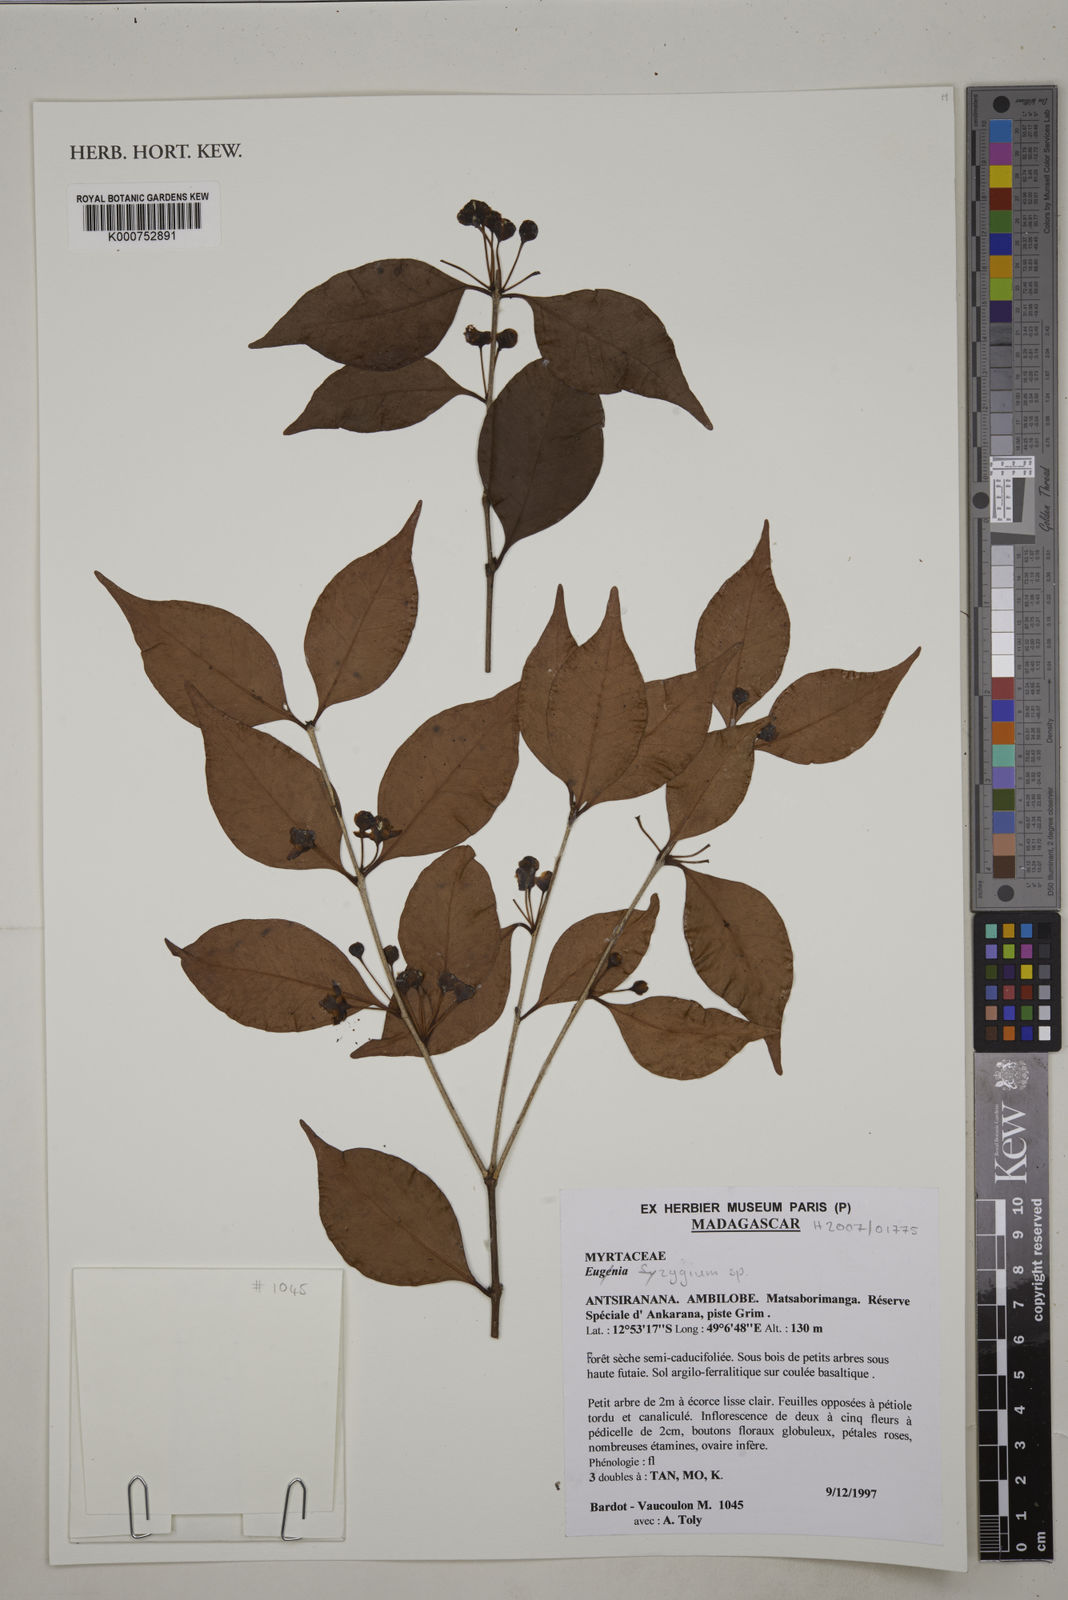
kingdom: Plantae
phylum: Tracheophyta
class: Magnoliopsida
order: Myrtales
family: Myrtaceae
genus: Syzygium
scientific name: Syzygium
